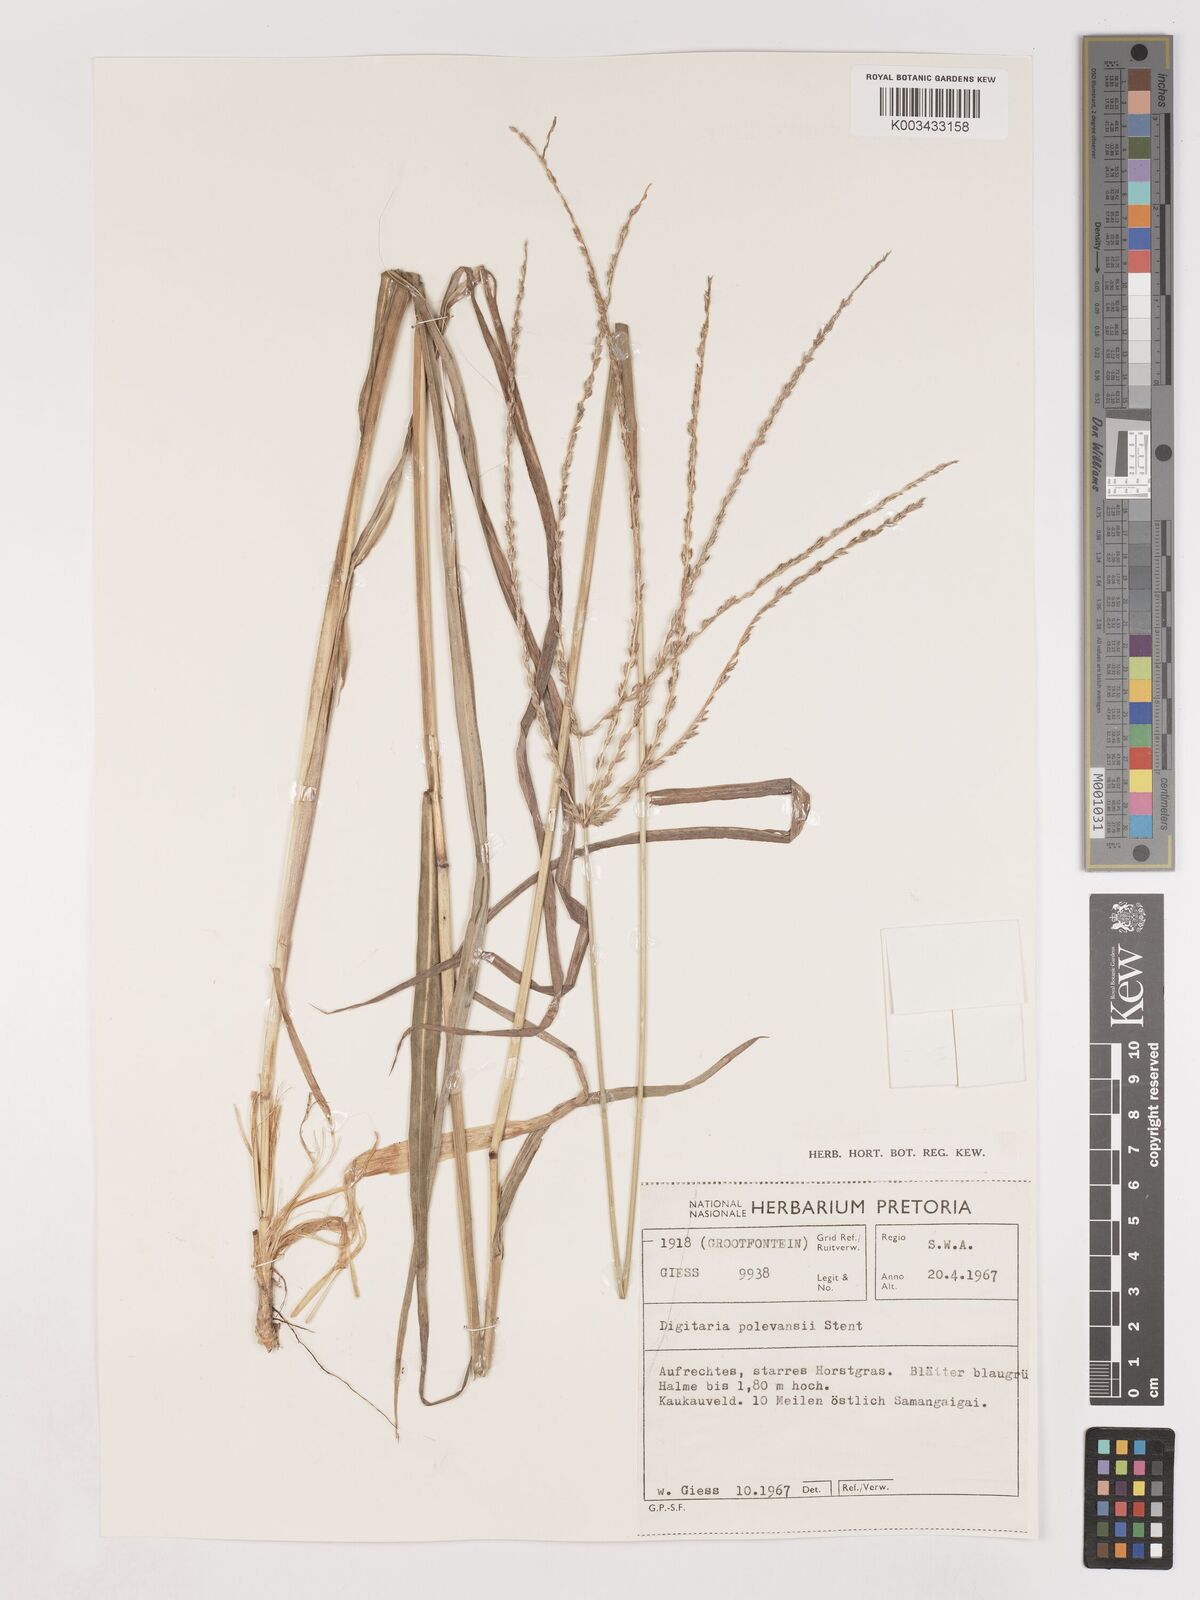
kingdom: Plantae
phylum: Tracheophyta
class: Liliopsida
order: Poales
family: Poaceae
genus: Digitaria
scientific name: Digitaria milanjiana
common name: Madagascar crabgrass
